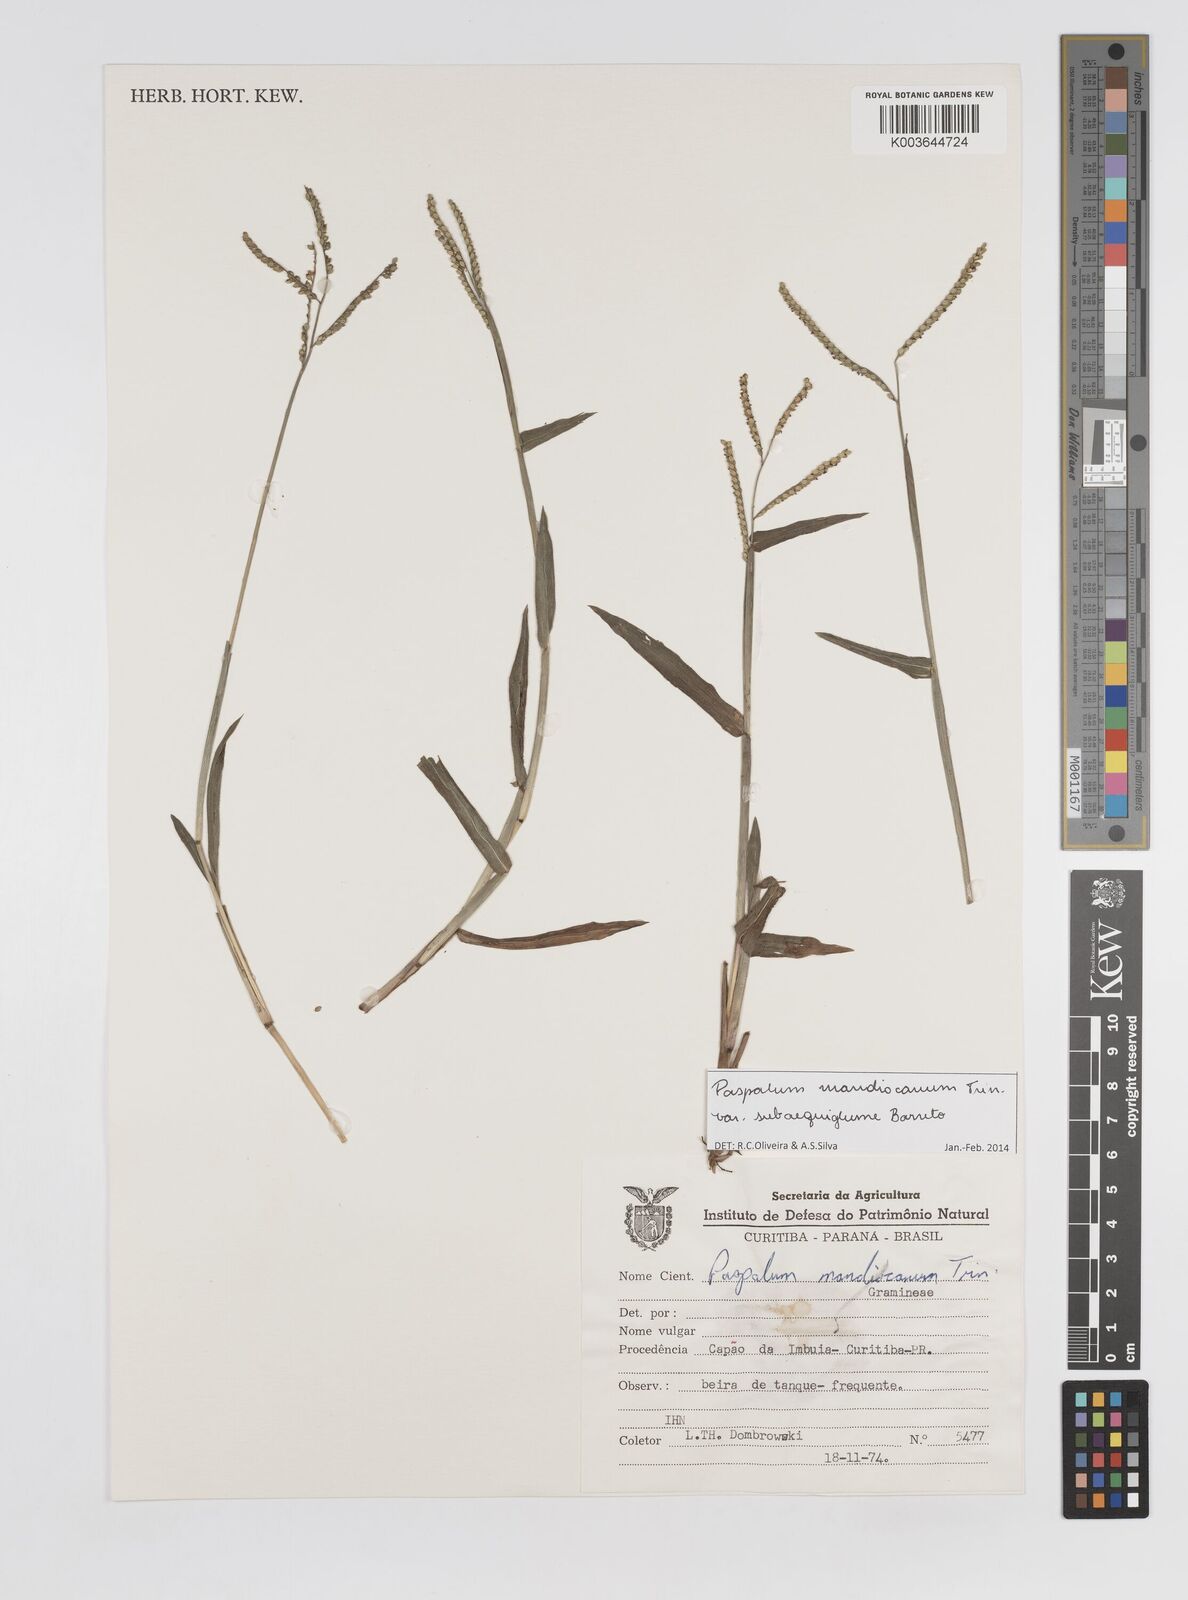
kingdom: Plantae
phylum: Tracheophyta
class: Liliopsida
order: Poales
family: Poaceae
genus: Paspalum
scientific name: Paspalum mandiocanum
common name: Paspalum
